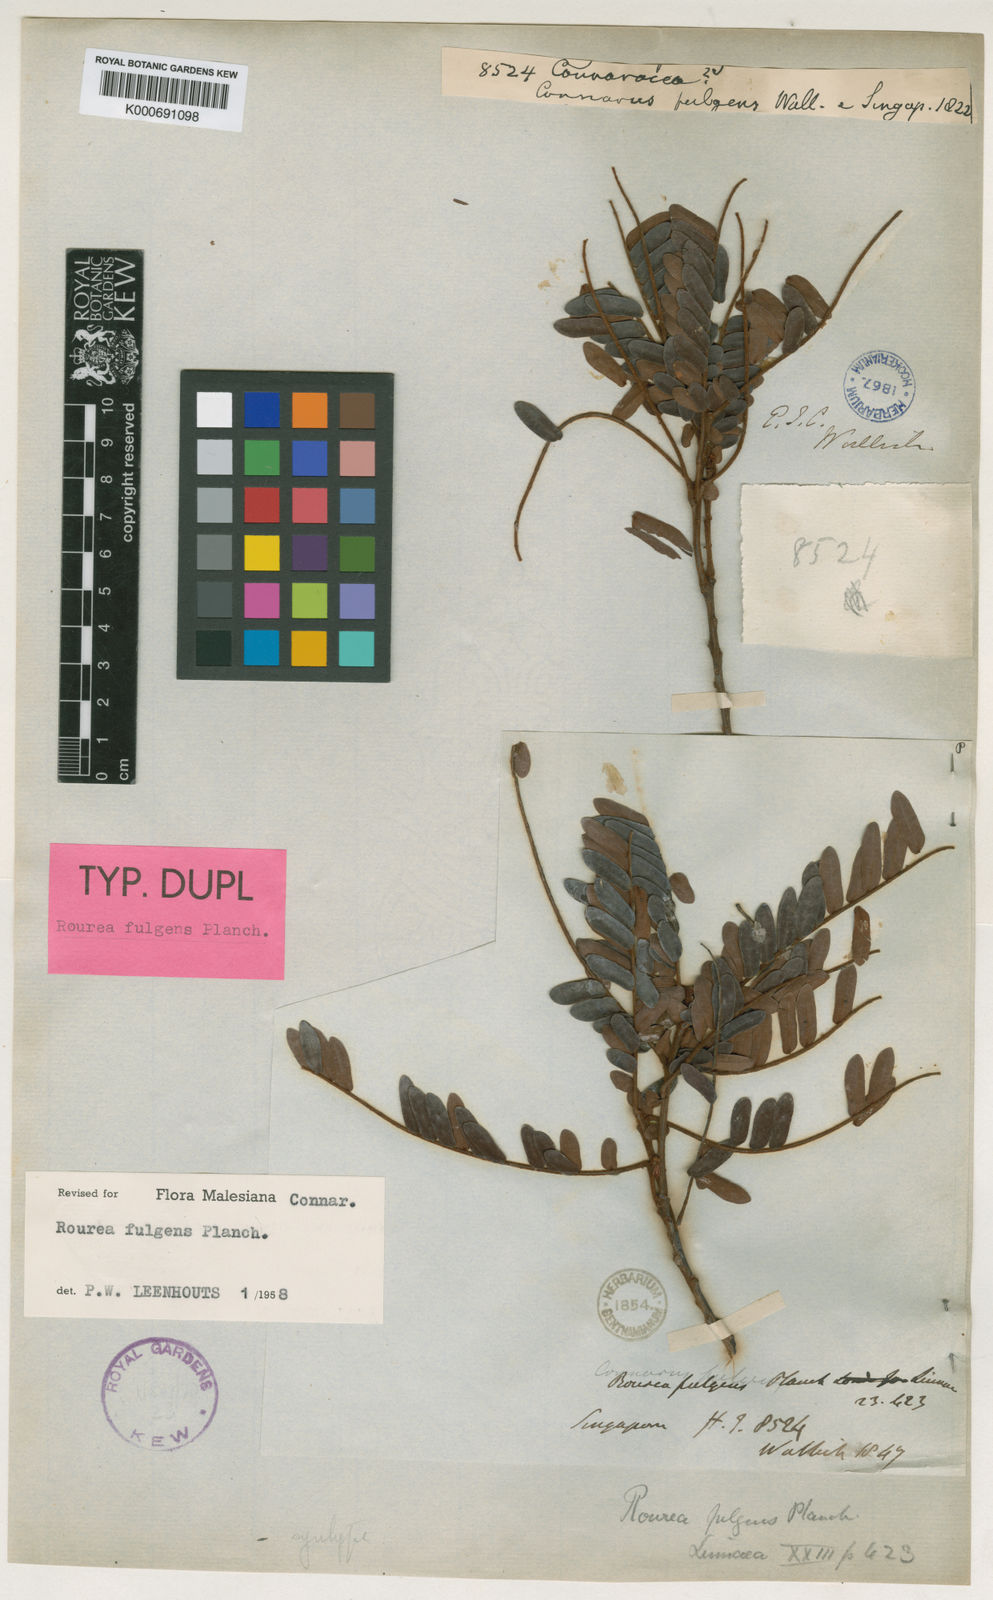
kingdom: Plantae
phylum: Tracheophyta
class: Magnoliopsida
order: Oxalidales
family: Connaraceae
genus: Rourea
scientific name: Rourea fulgens
